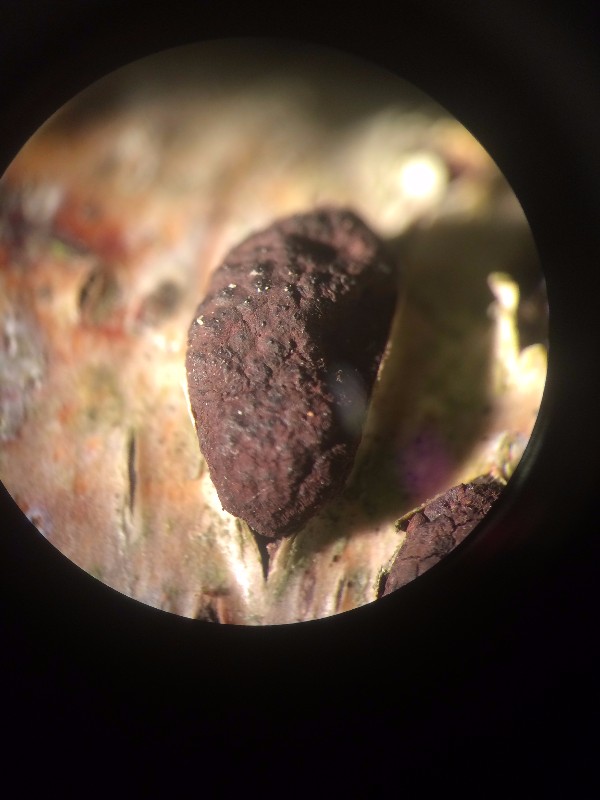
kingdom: Fungi
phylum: Ascomycota
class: Sordariomycetes
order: Xylariales
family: Hypoxylaceae
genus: Jackrogersella
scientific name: Jackrogersella multiformis
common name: foranderlig kulbær
